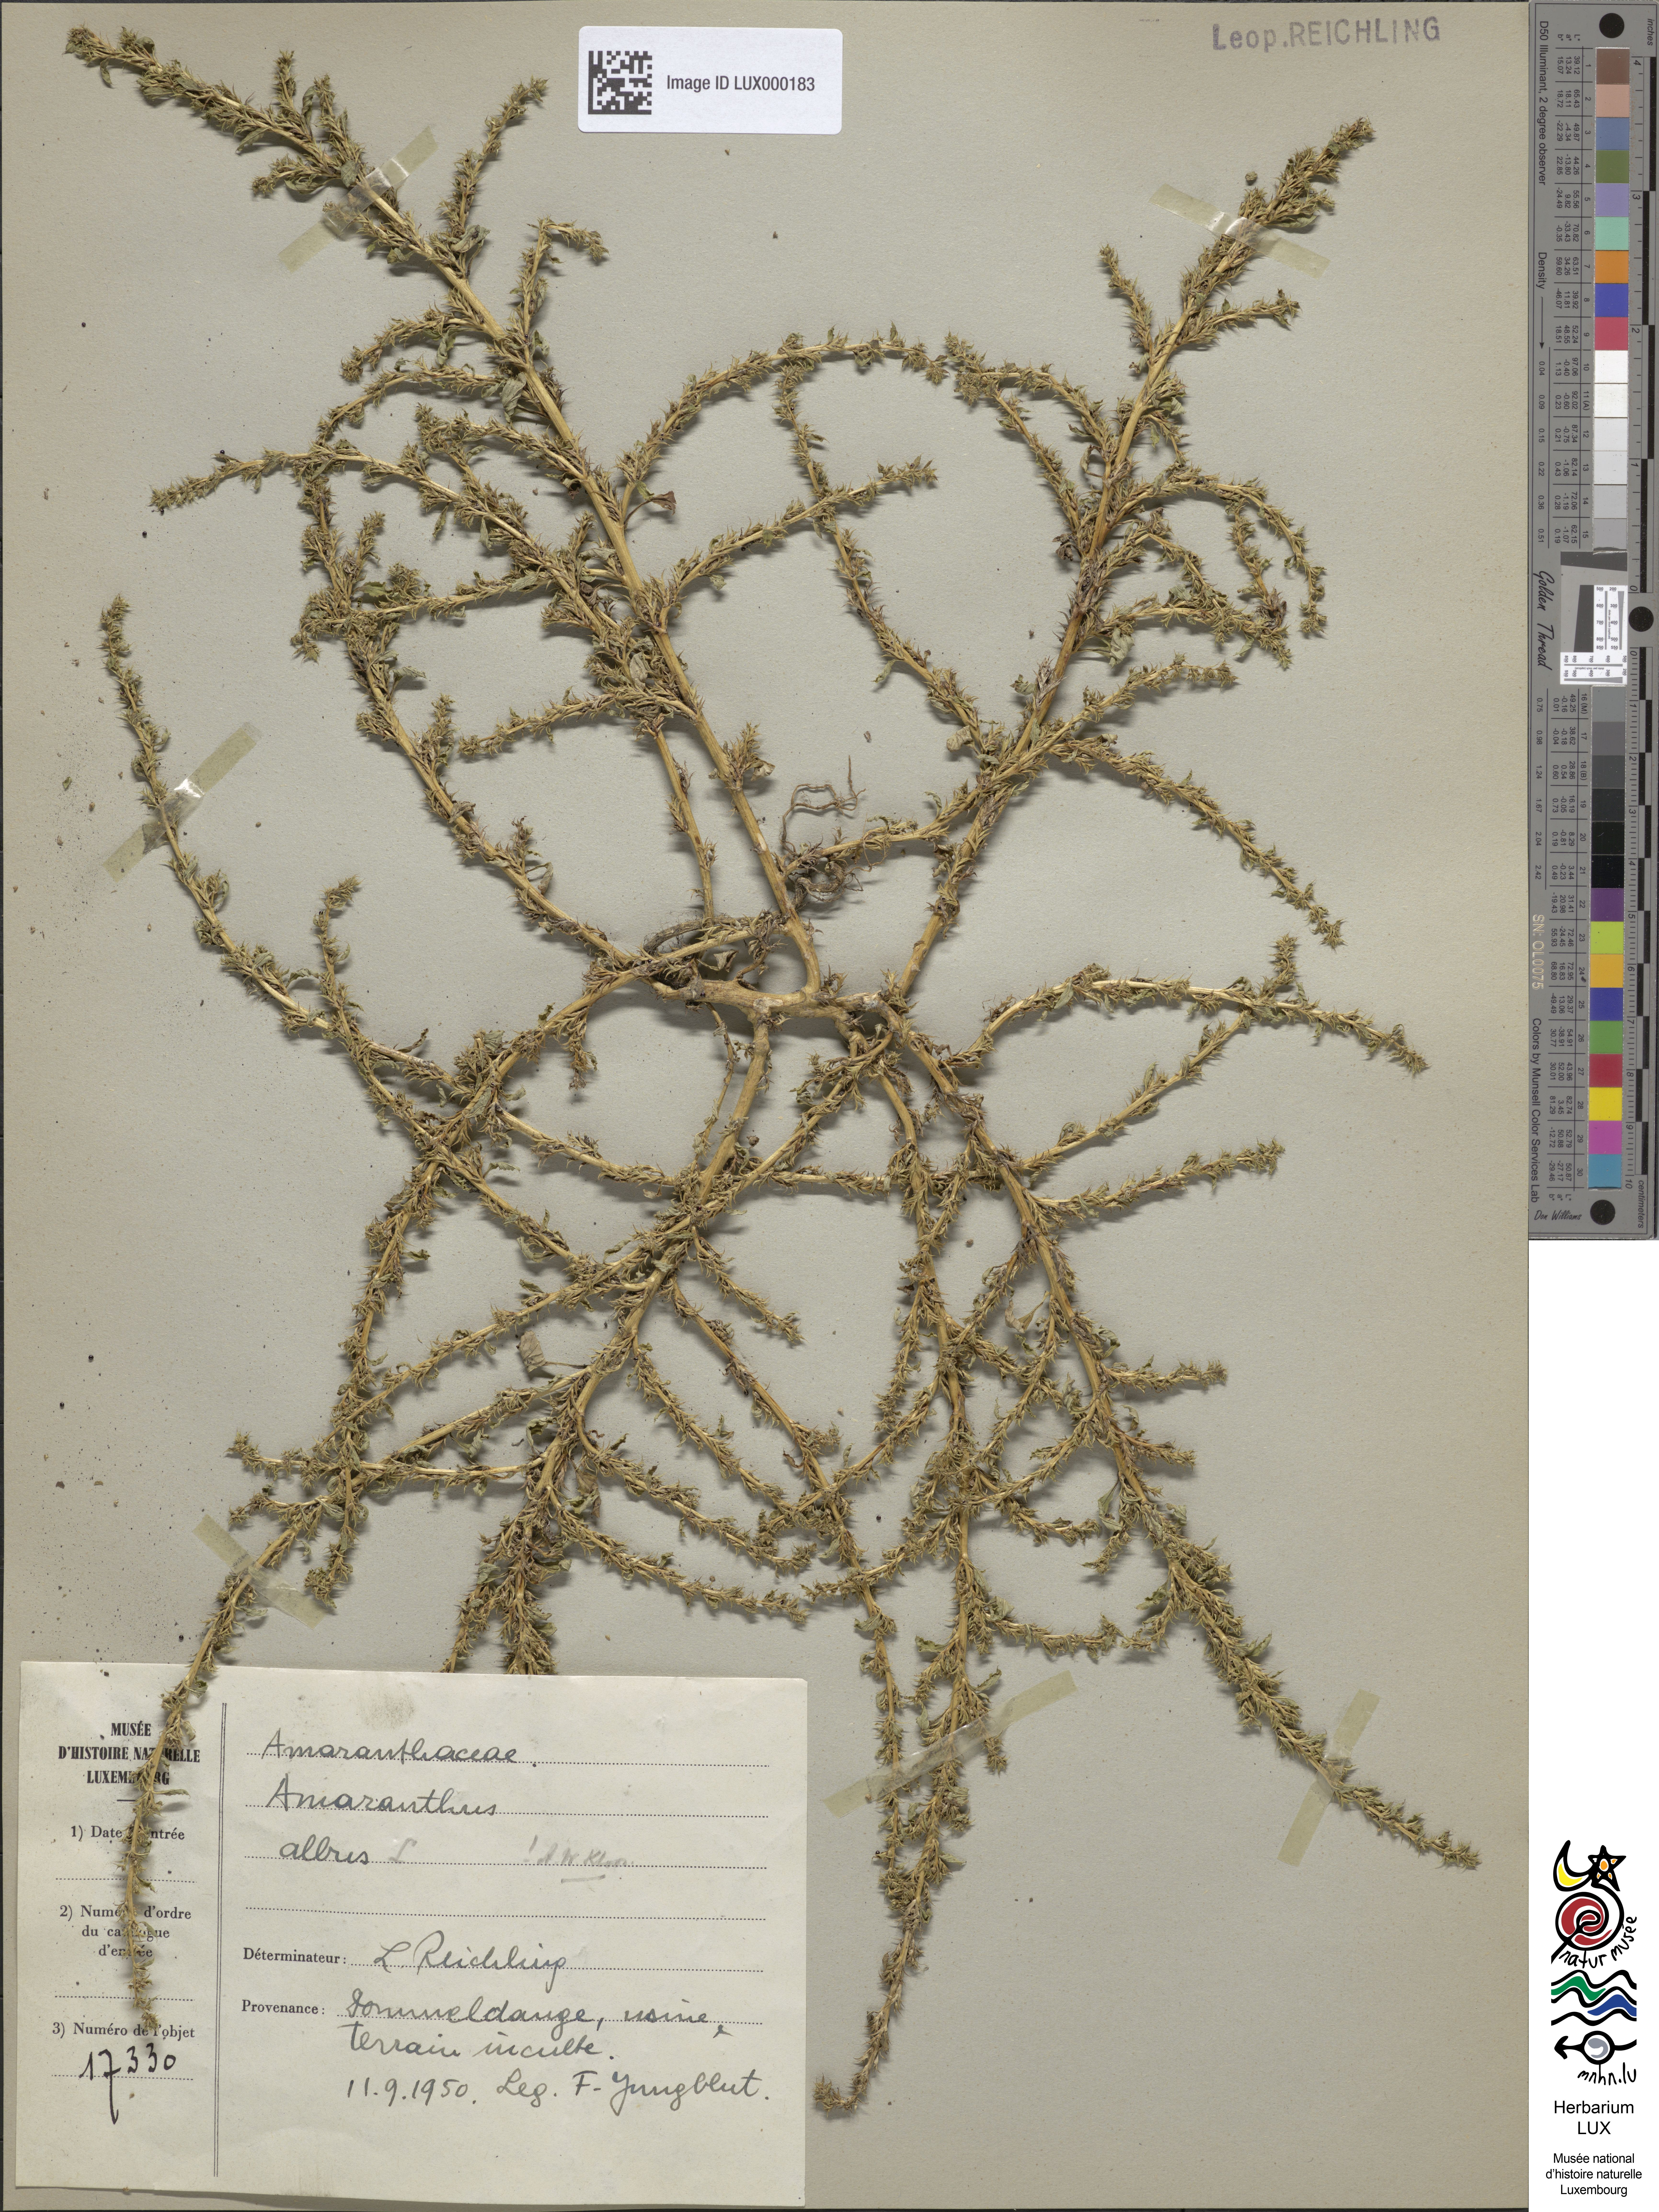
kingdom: Plantae
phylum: Tracheophyta
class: Magnoliopsida
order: Caryophyllales
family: Amaranthaceae
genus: Amaranthus
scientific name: Amaranthus albus
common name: White pigweed
